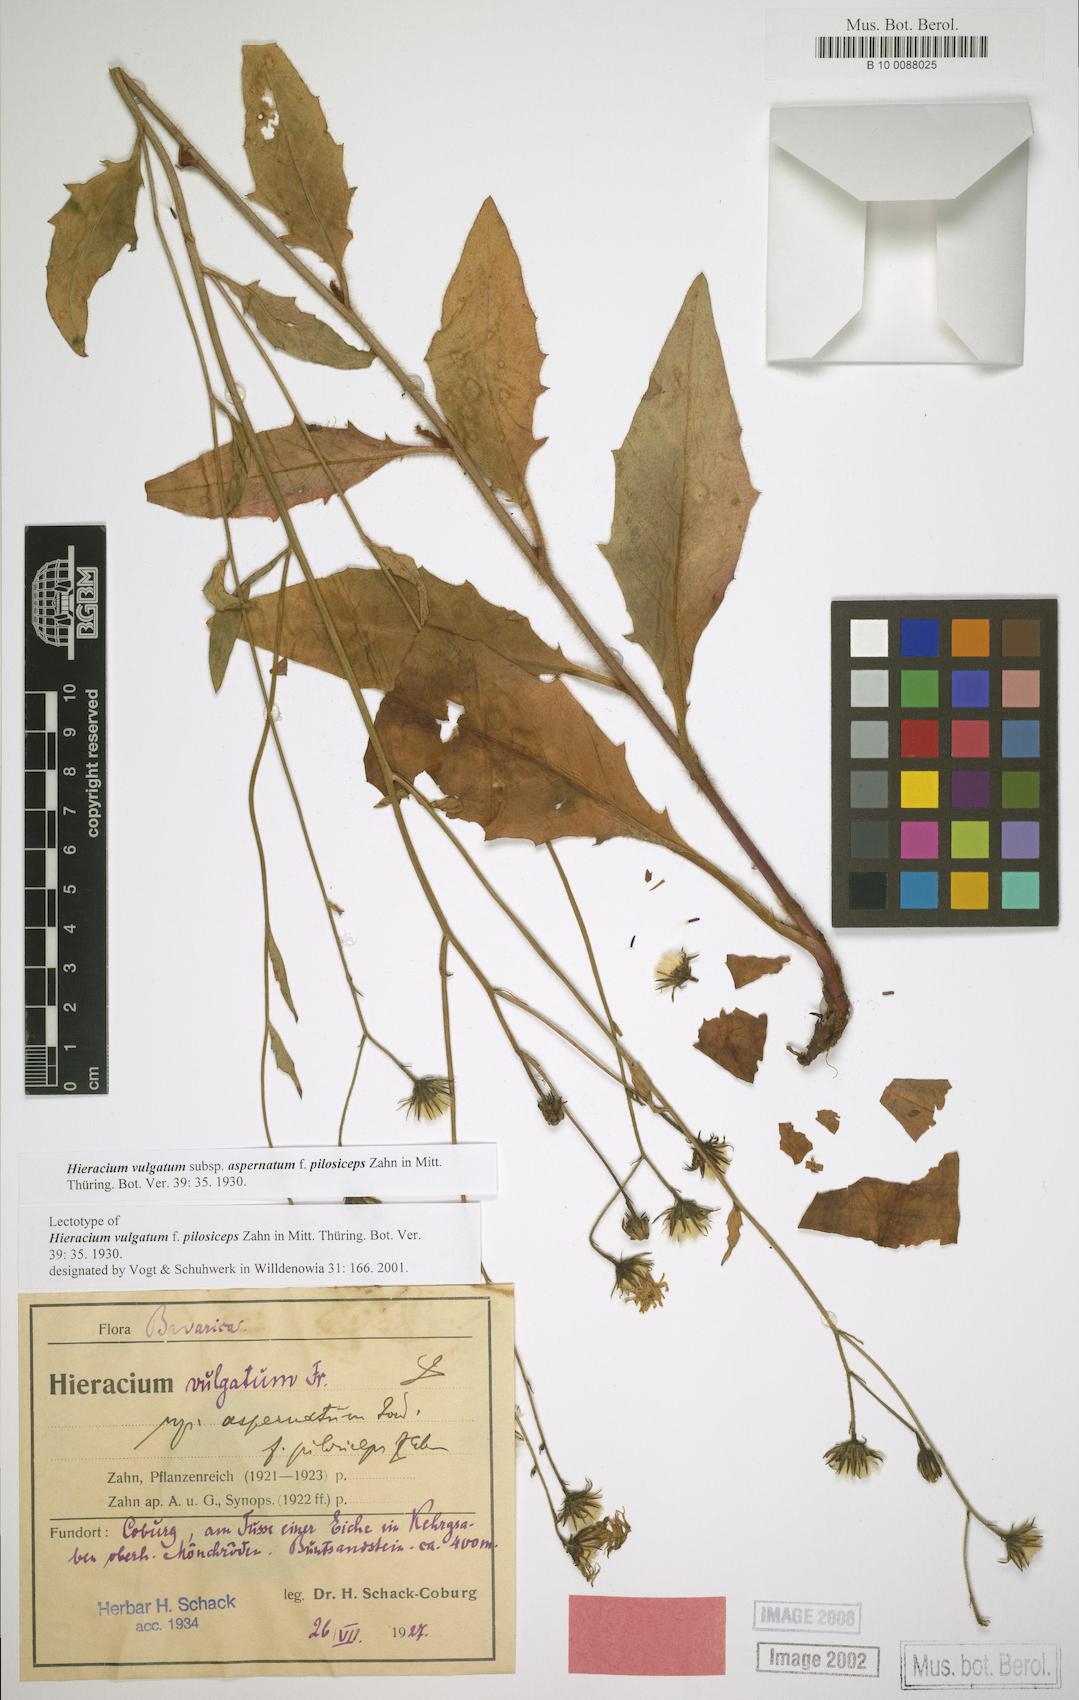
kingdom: Plantae
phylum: Tracheophyta
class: Magnoliopsida
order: Asterales
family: Asteraceae
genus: Pilosella
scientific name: Pilosella cymosa
